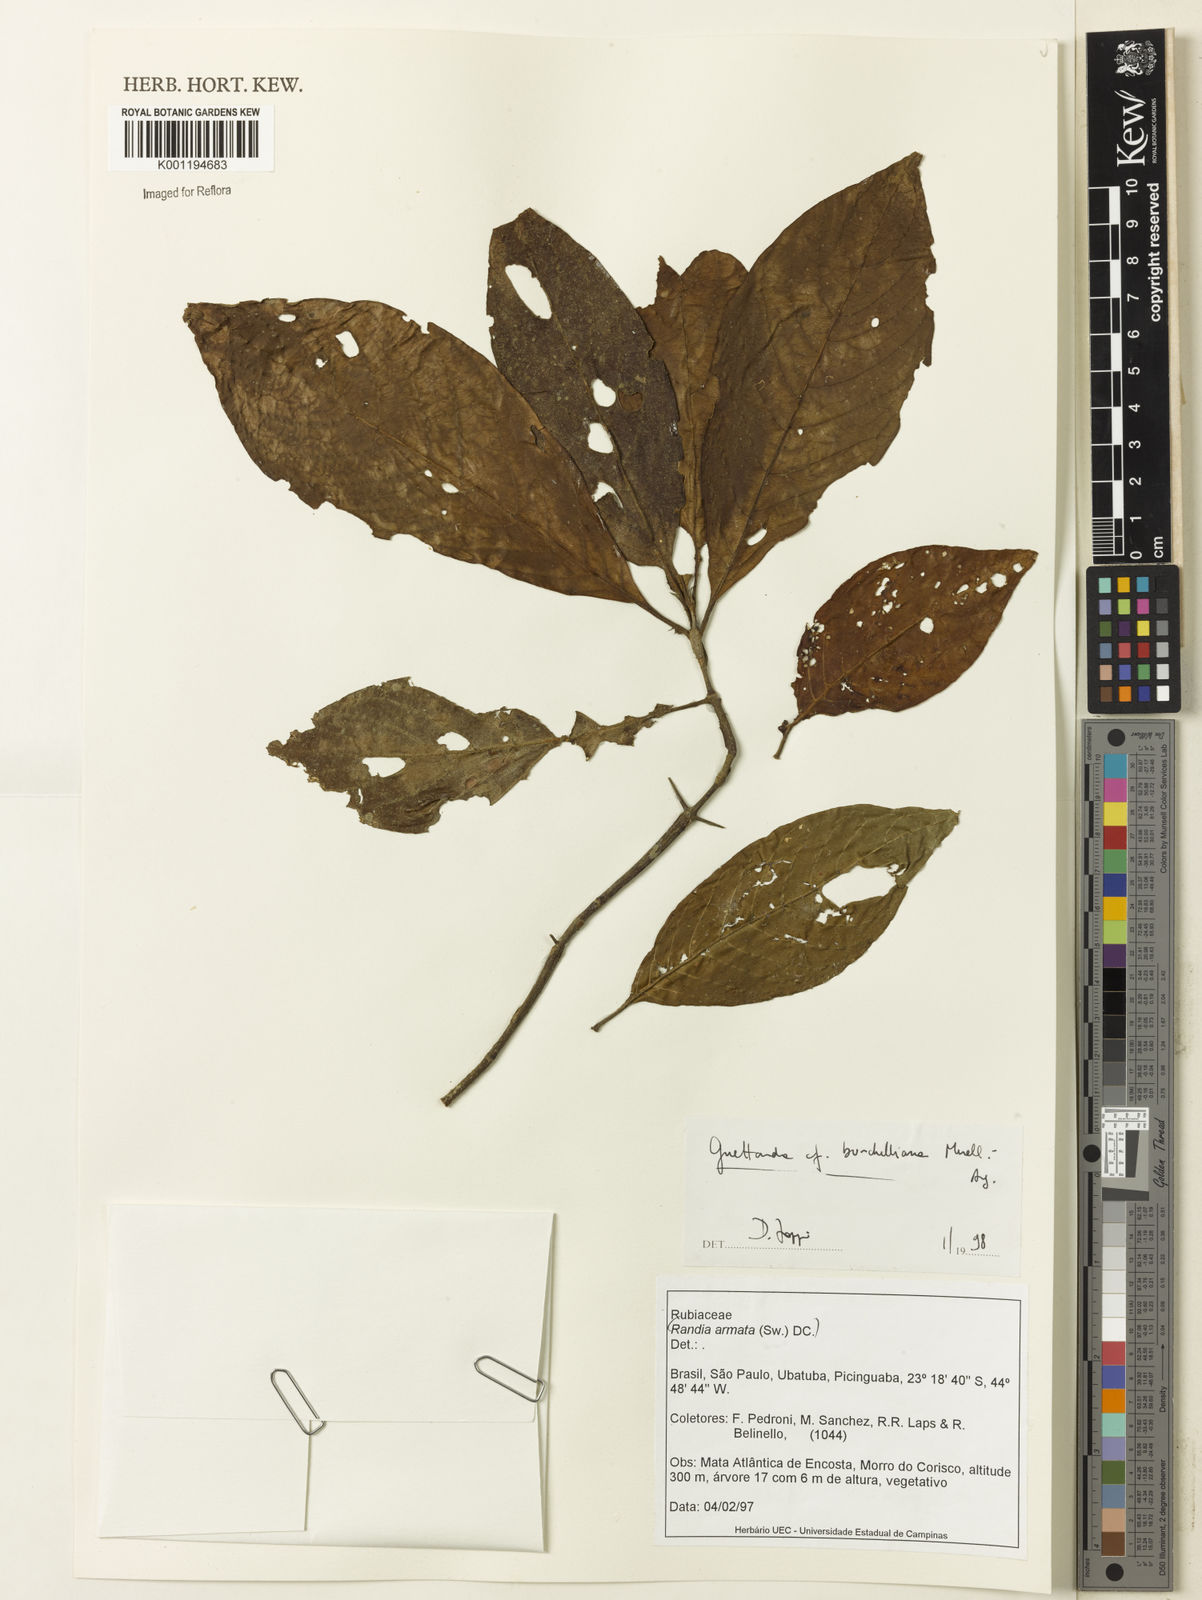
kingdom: Plantae
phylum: Tracheophyta
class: Magnoliopsida
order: Gentianales
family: Rubiaceae
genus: Guettarda
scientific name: Guettarda
